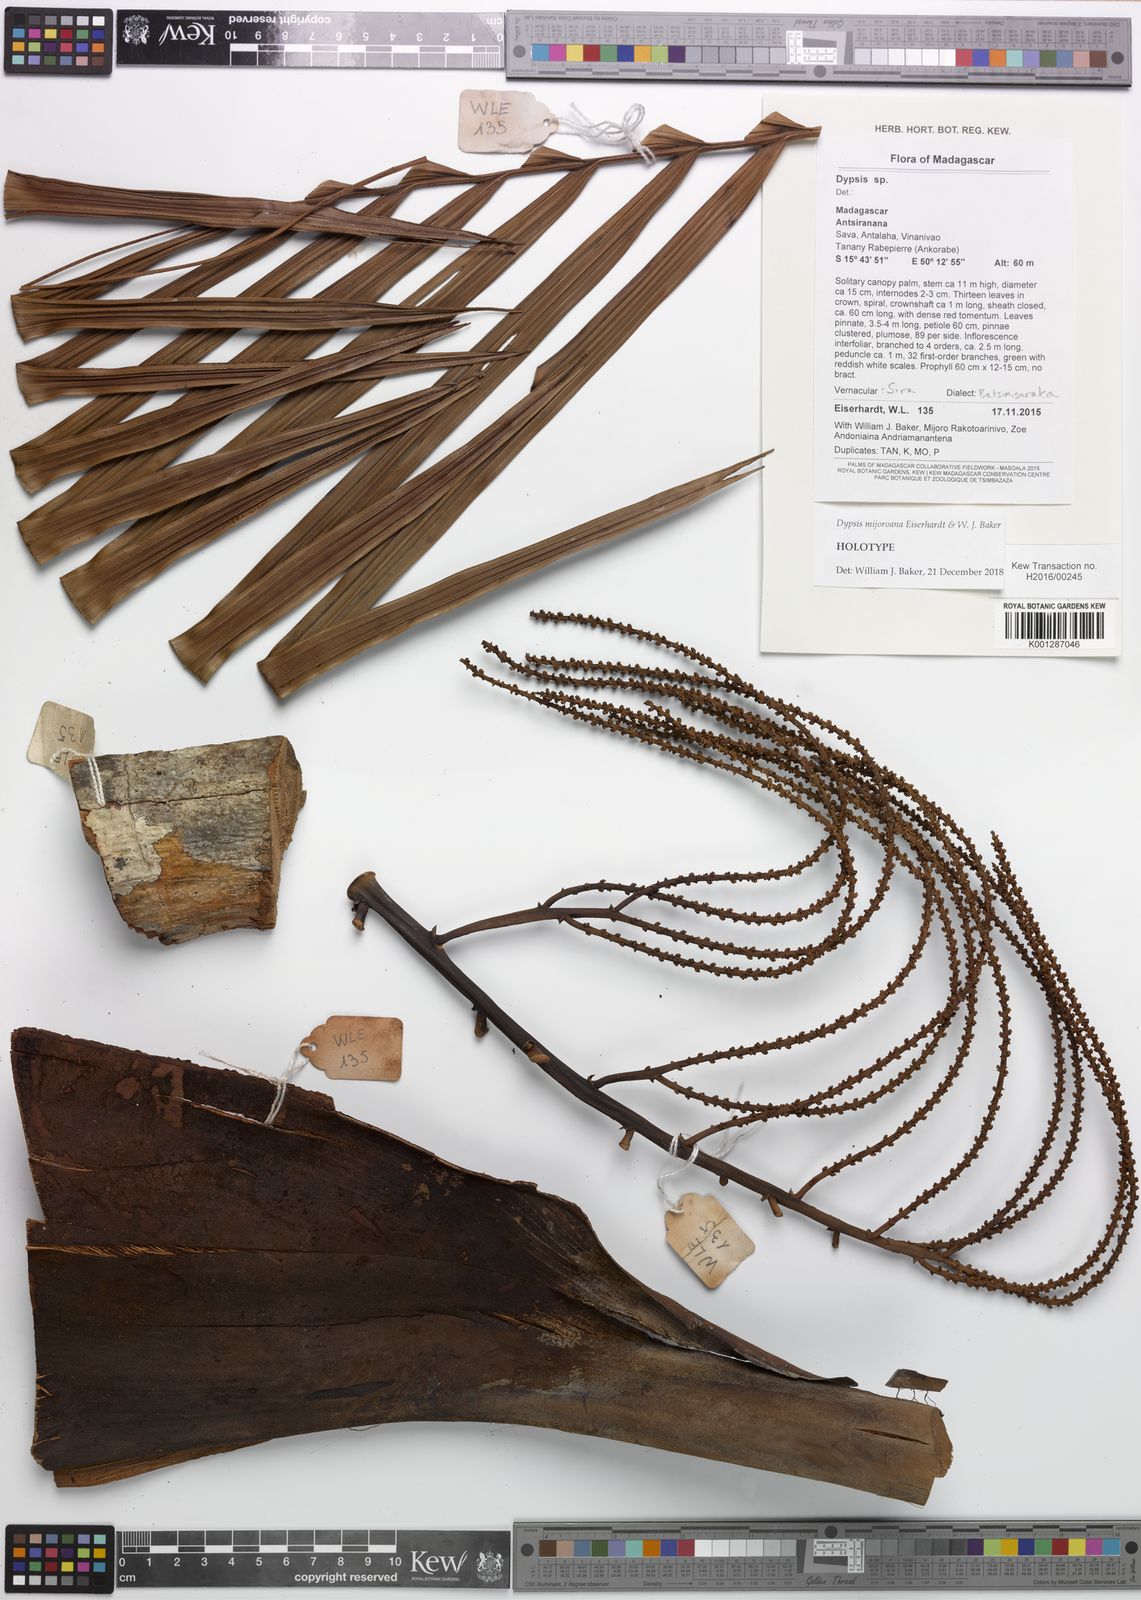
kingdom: Plantae
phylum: Tracheophyta
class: Liliopsida
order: Arecales
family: Arecaceae
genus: Dypsis
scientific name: Dypsis mijoroana
